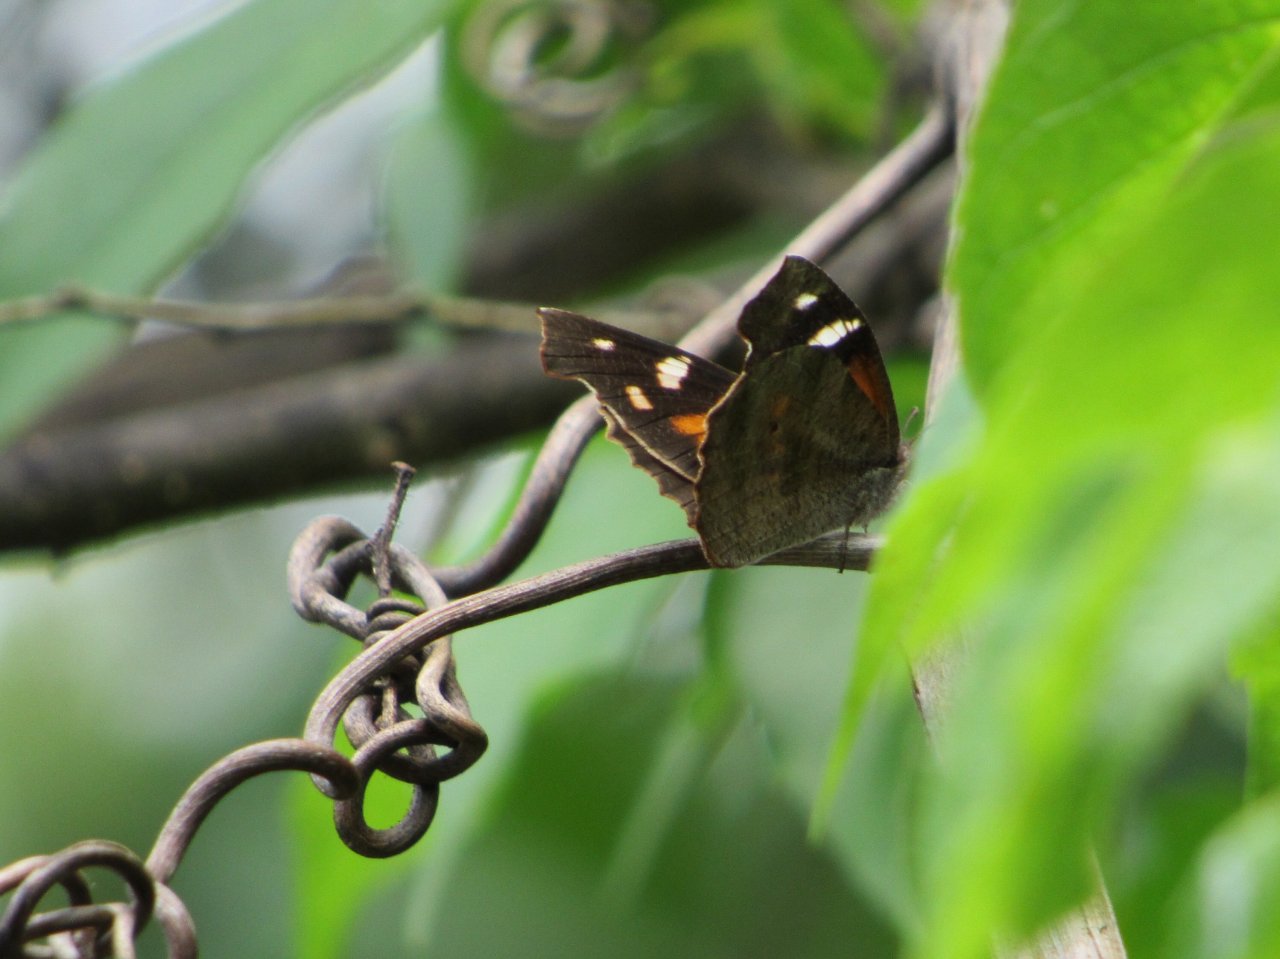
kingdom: Animalia
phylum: Arthropoda
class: Insecta
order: Lepidoptera
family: Nymphalidae
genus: Libytheana
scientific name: Libytheana carinenta
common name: American Snout
